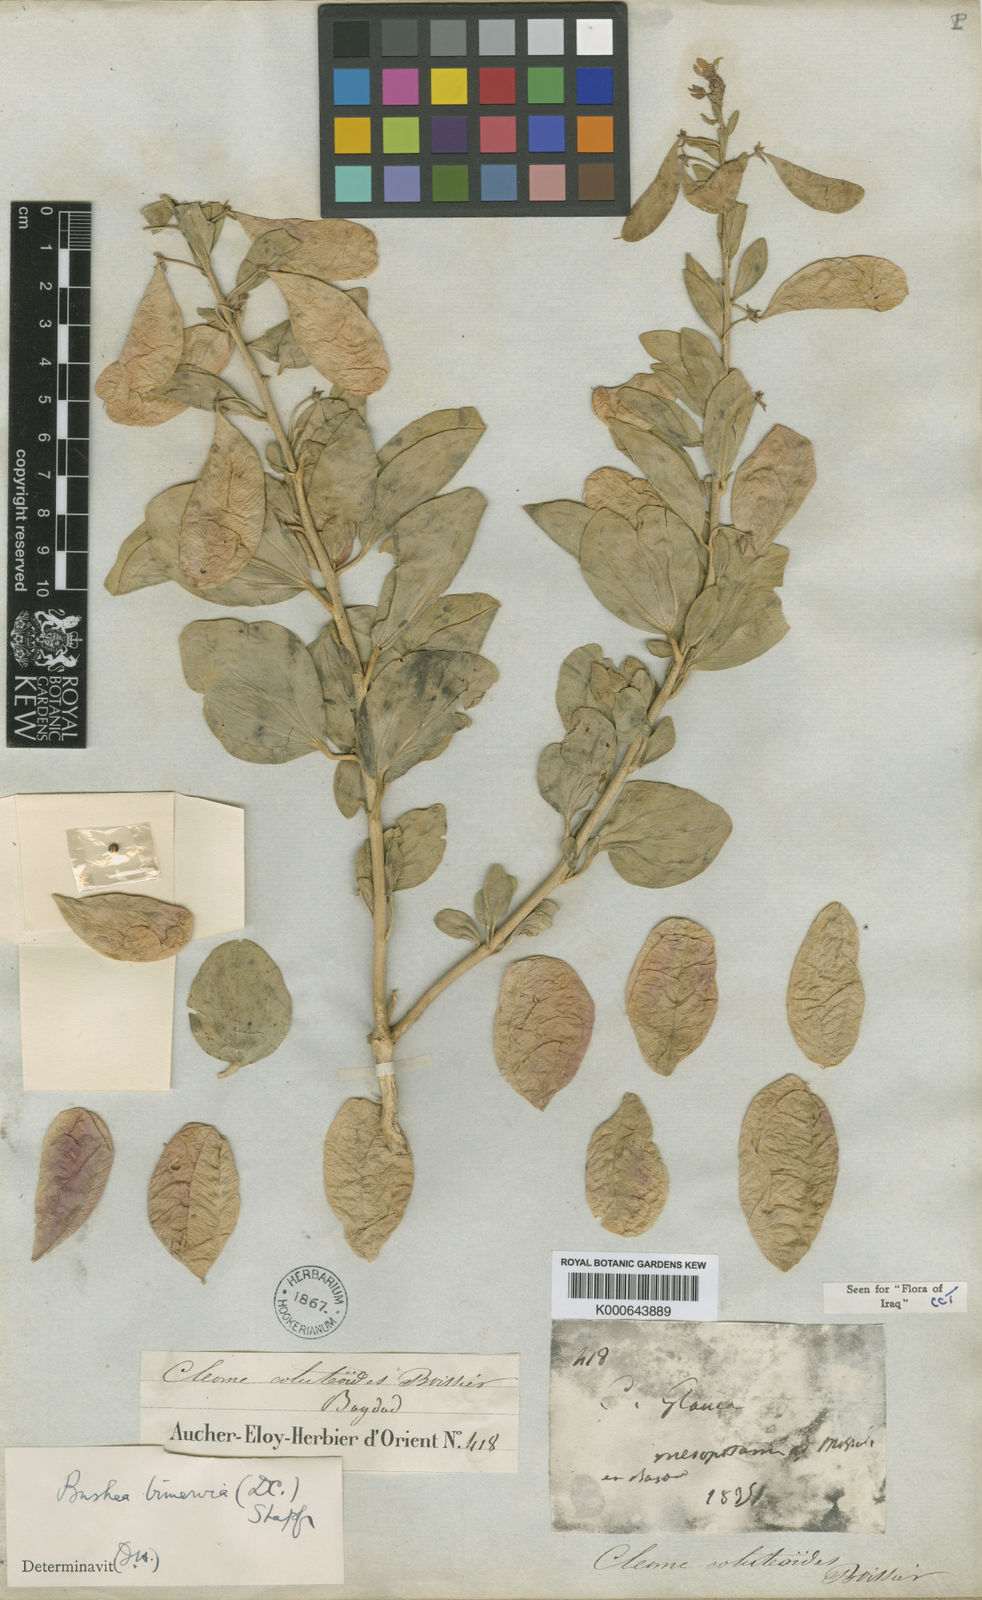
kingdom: Plantae
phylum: Tracheophyta
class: Magnoliopsida
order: Brassicales
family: Cleomaceae
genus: Cleome
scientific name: Cleome coluteoides
